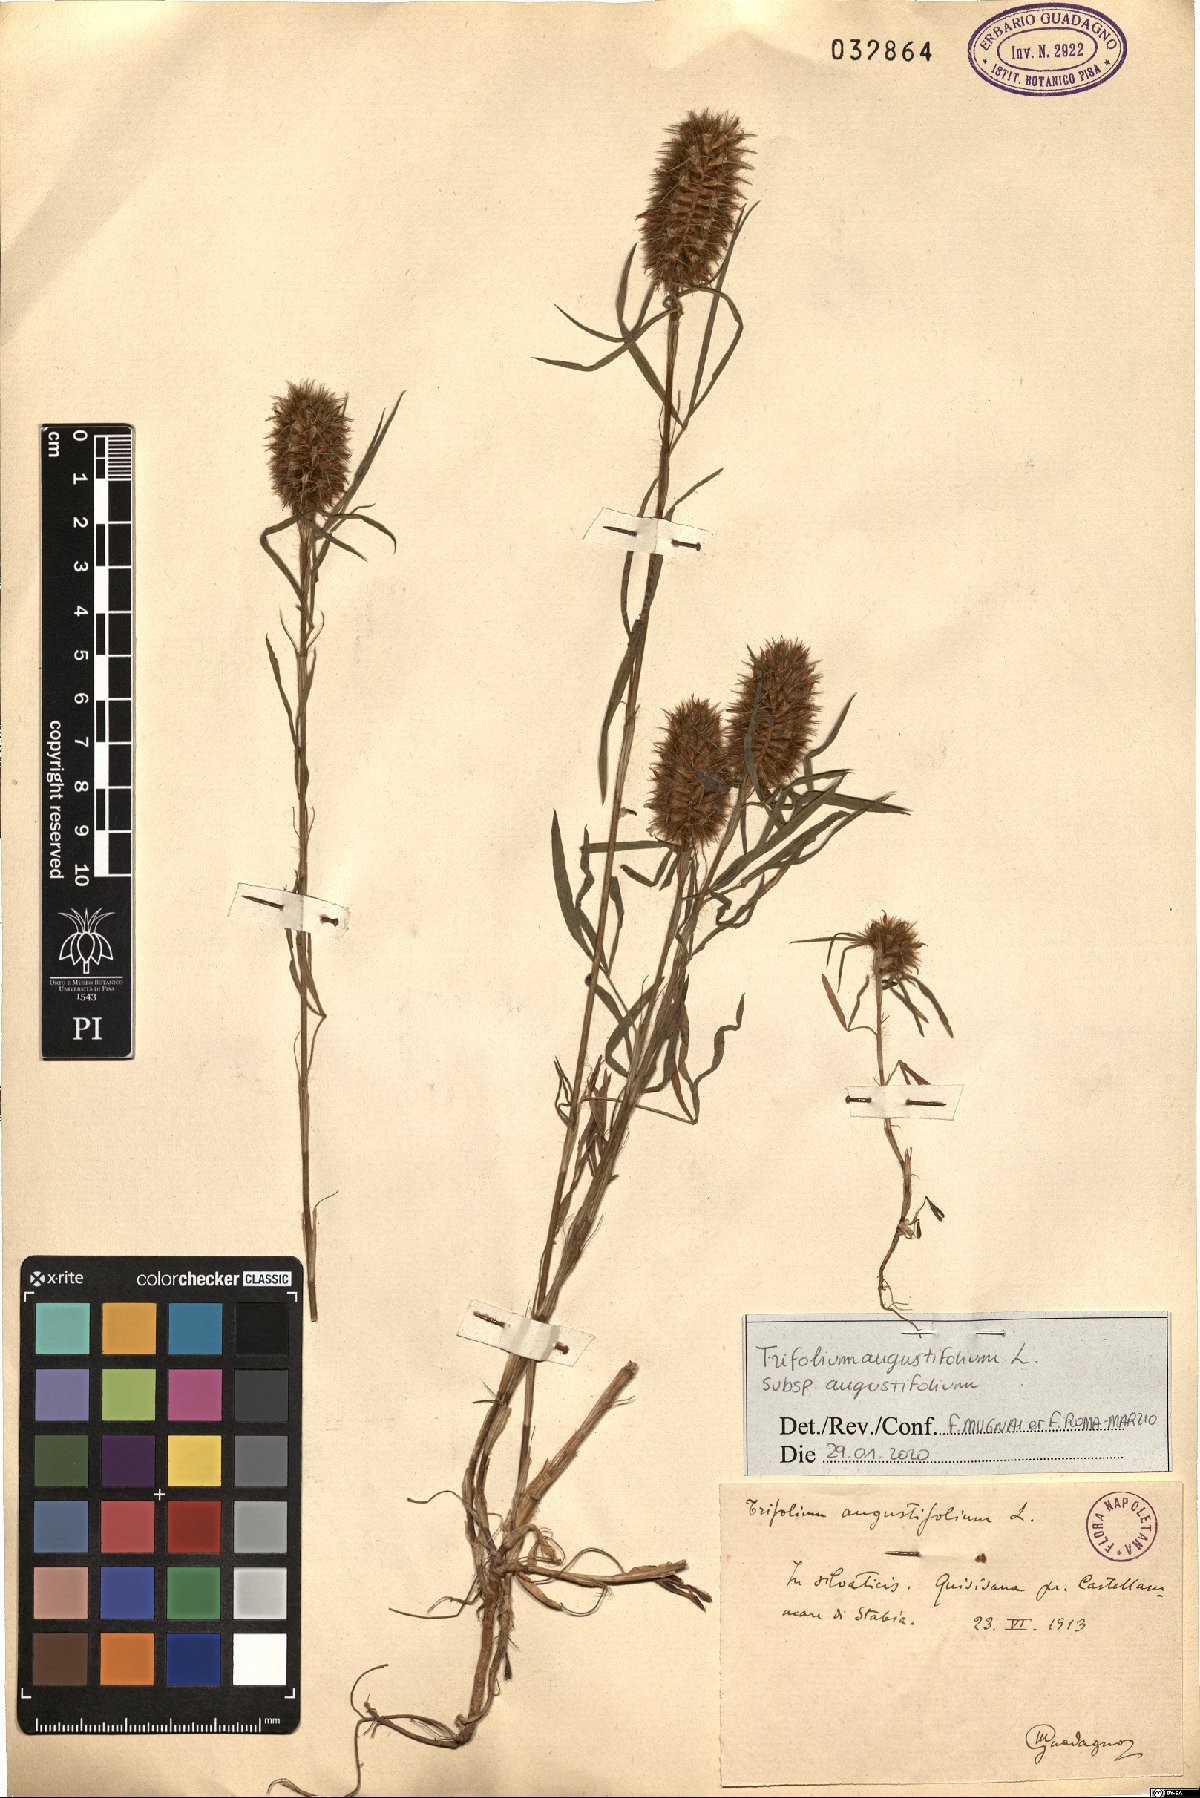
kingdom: Plantae
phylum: Tracheophyta
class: Magnoliopsida
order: Fabales
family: Fabaceae
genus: Trifolium
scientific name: Trifolium angustifolium
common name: Narrow clover
